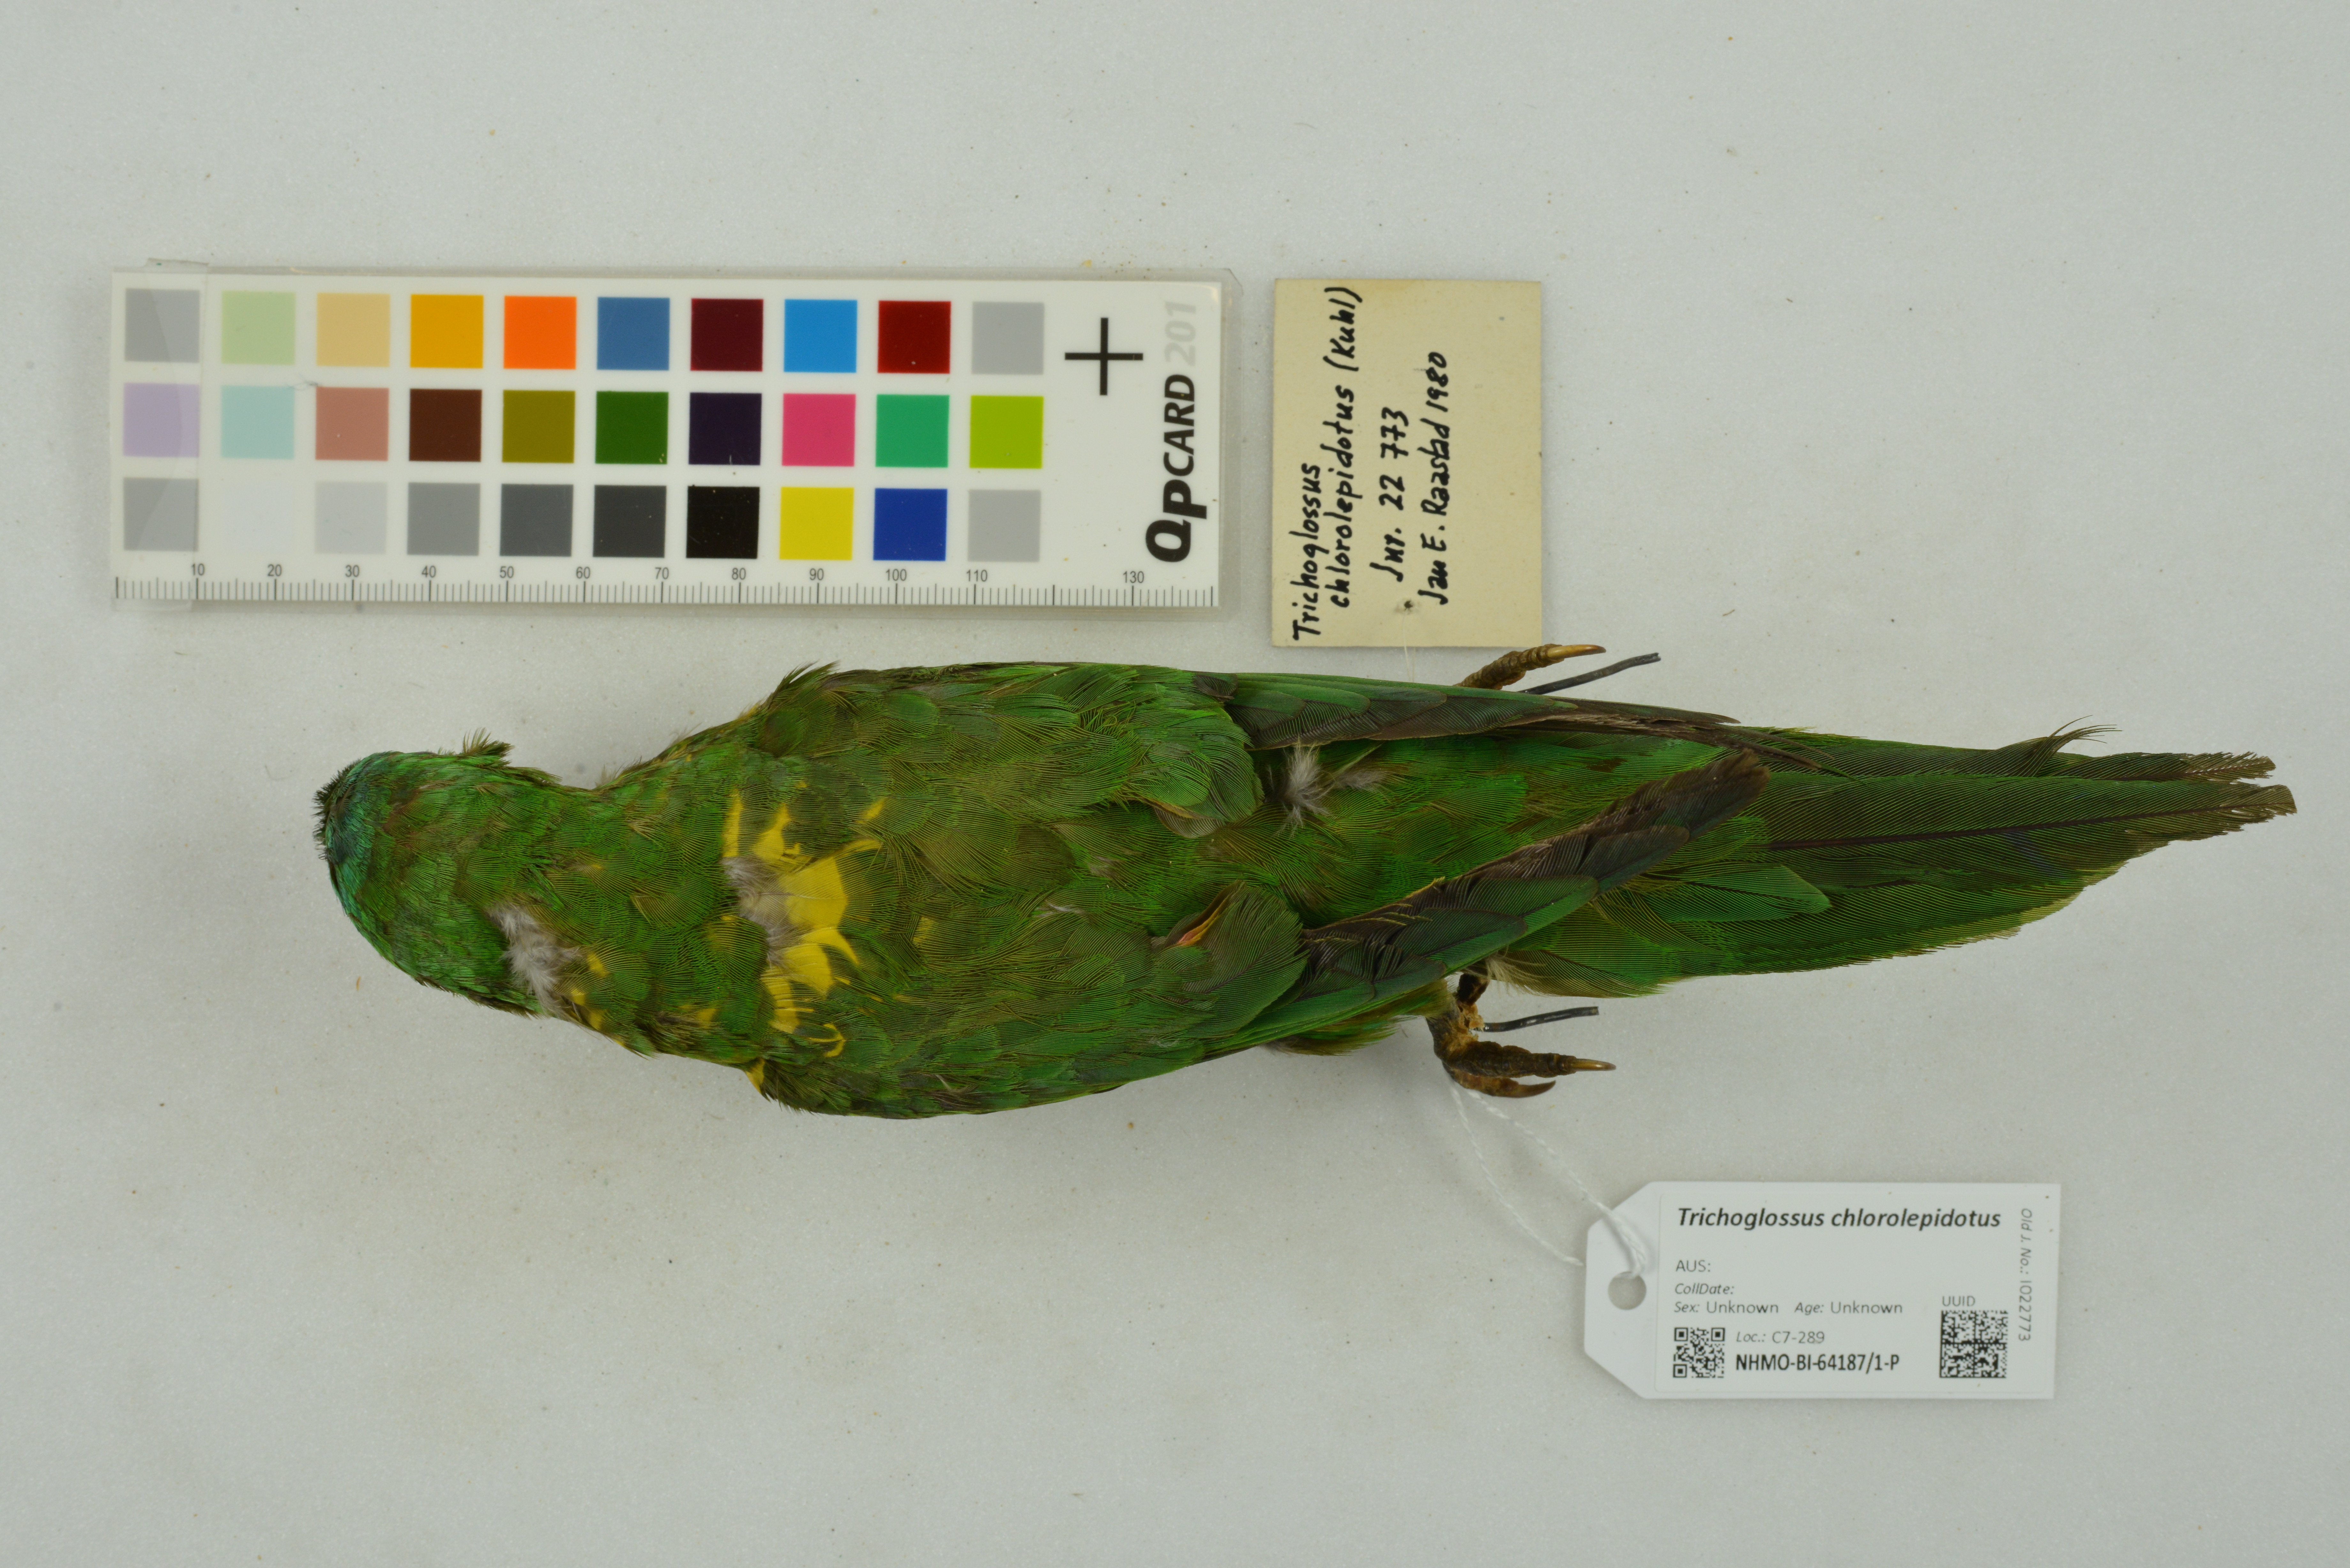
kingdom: Animalia
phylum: Chordata
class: Aves
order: Psittaciformes
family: Psittacidae
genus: Trichoglossus
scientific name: Trichoglossus chlorolepidotus
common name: Scaly-breasted lorikeet
